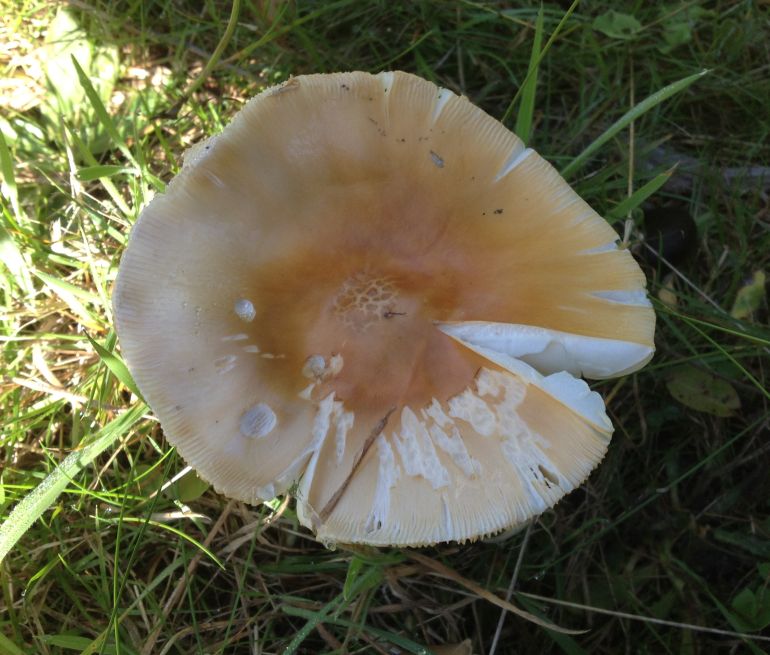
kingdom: Fungi
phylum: Basidiomycota
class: Agaricomycetes
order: Agaricales
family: Amanitaceae
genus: Amanita
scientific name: Amanita crocea
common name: gylden kam-fluesvamp
